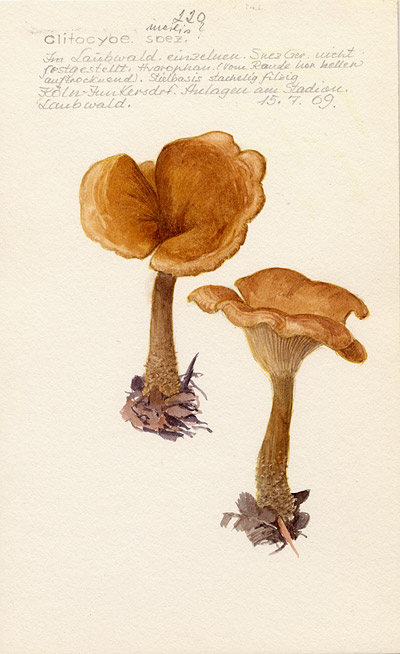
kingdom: Fungi
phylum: Basidiomycota
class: Agaricomycetes
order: Agaricales
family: Tricholomataceae
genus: Clitocybe
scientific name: Clitocybe
